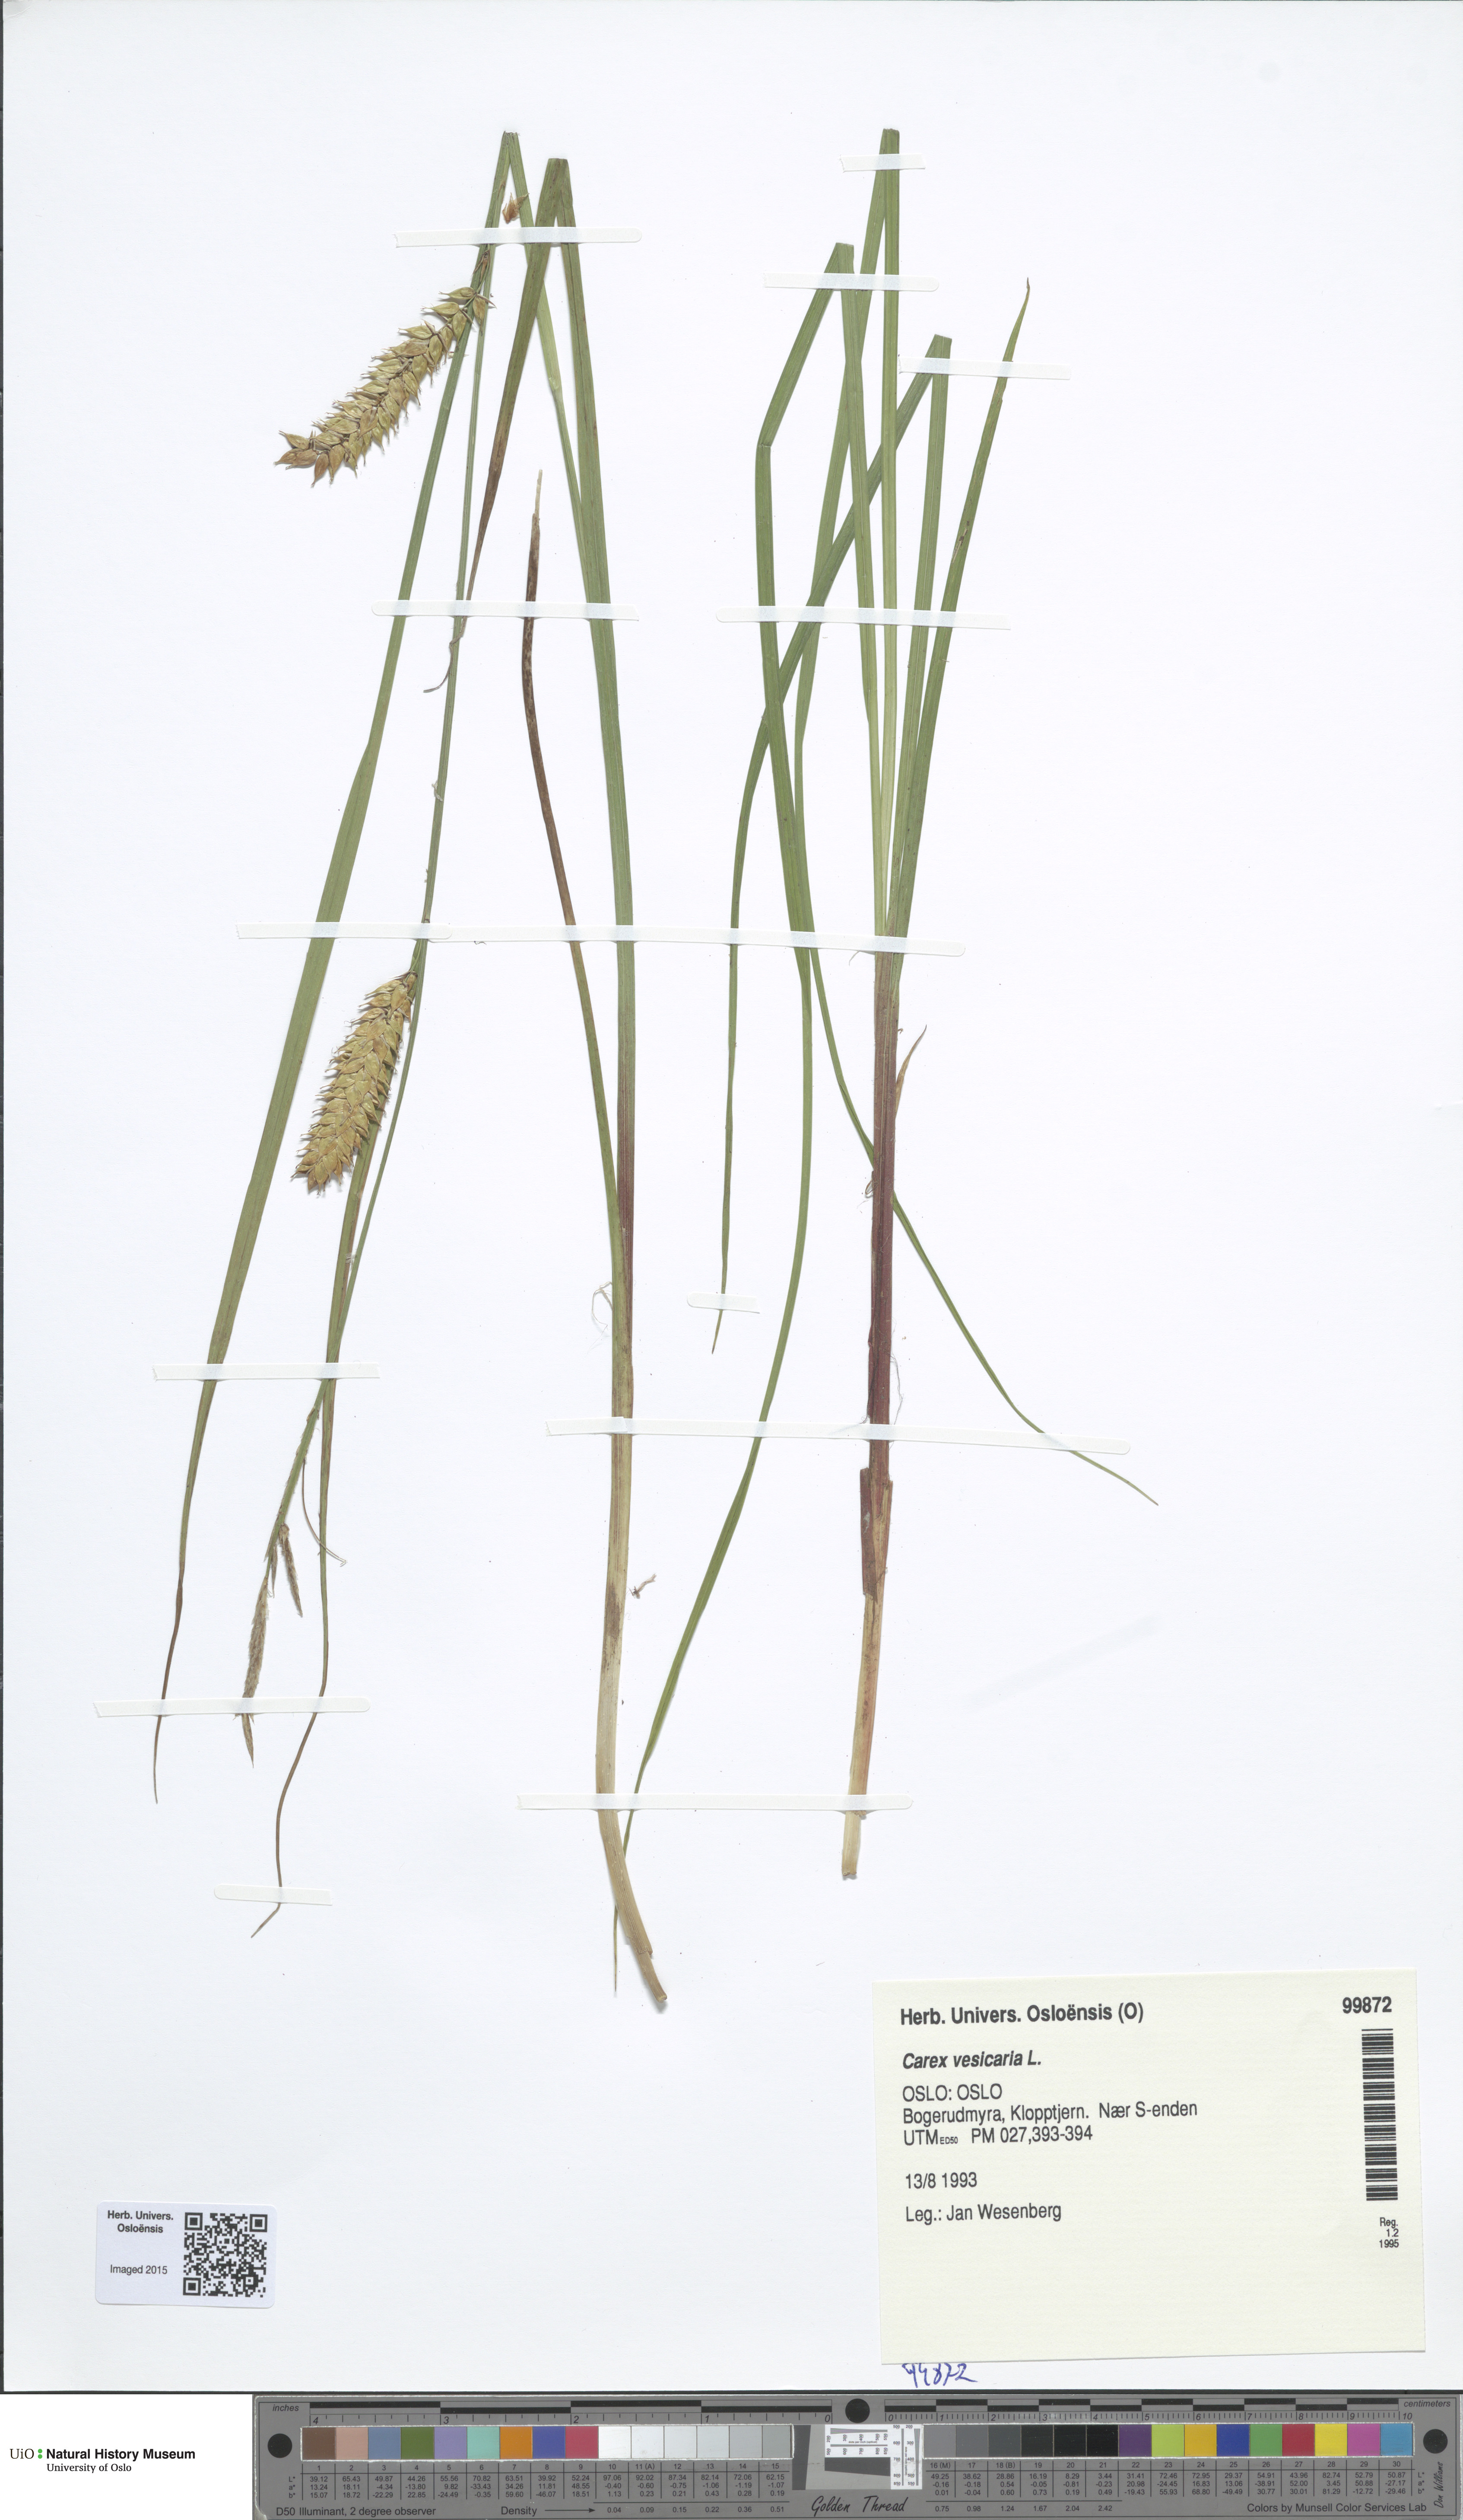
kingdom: Plantae
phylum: Tracheophyta
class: Liliopsida
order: Poales
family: Cyperaceae
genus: Carex
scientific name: Carex vesicaria
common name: Bladder-sedge
